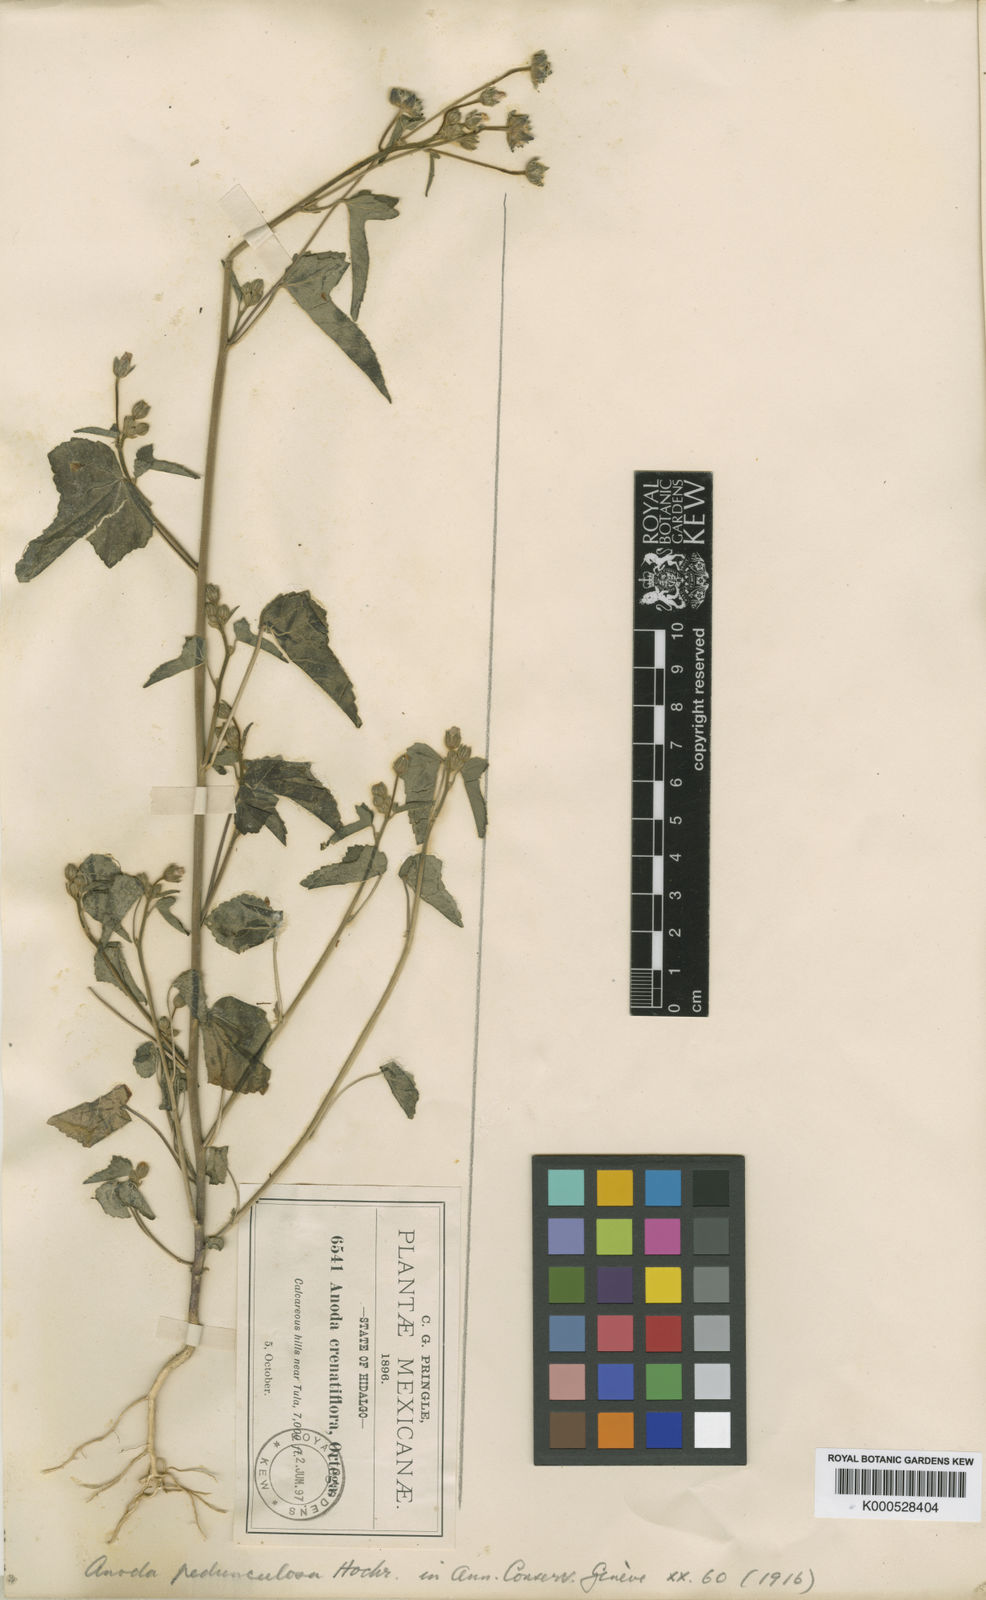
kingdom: Plantae
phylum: Tracheophyta
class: Magnoliopsida
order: Malvales
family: Malvaceae
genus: Anoda
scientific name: Anoda pedunculosa
